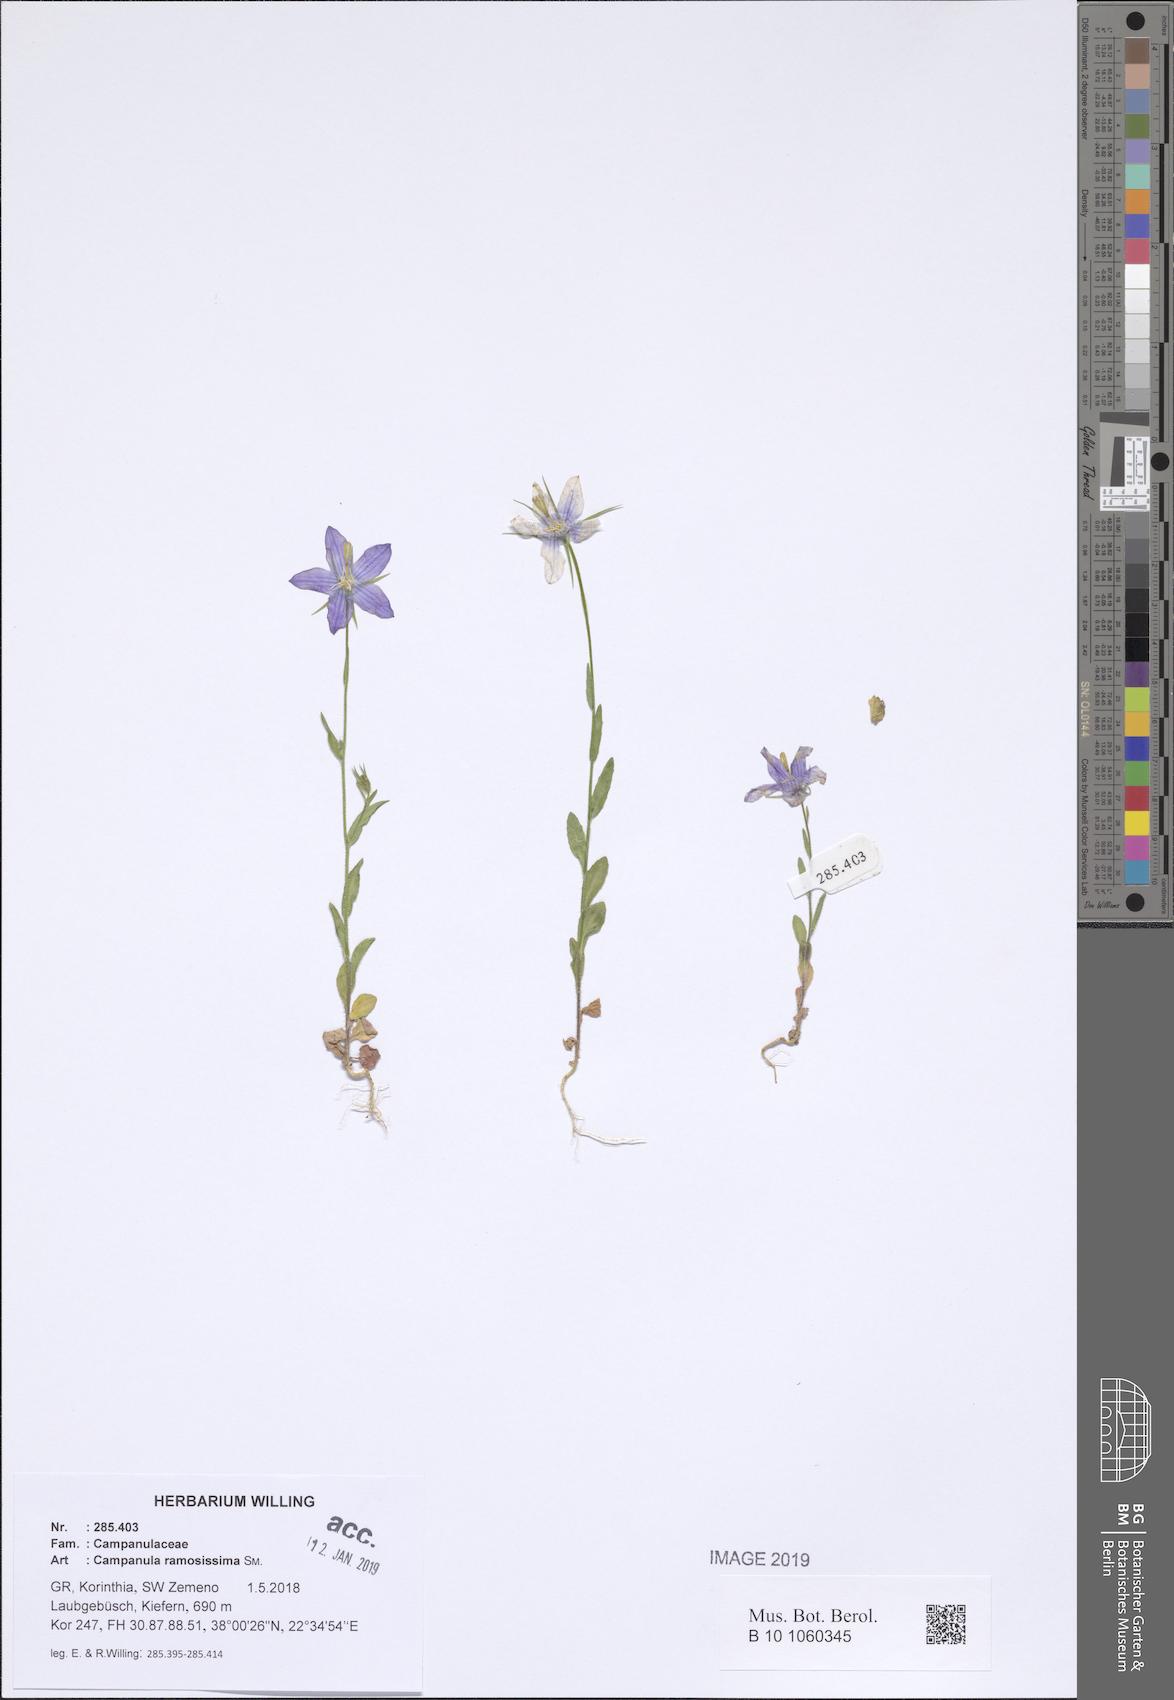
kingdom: Plantae
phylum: Tracheophyta
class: Magnoliopsida
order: Asterales
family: Campanulaceae
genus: Campanula
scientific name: Campanula ramosissima
